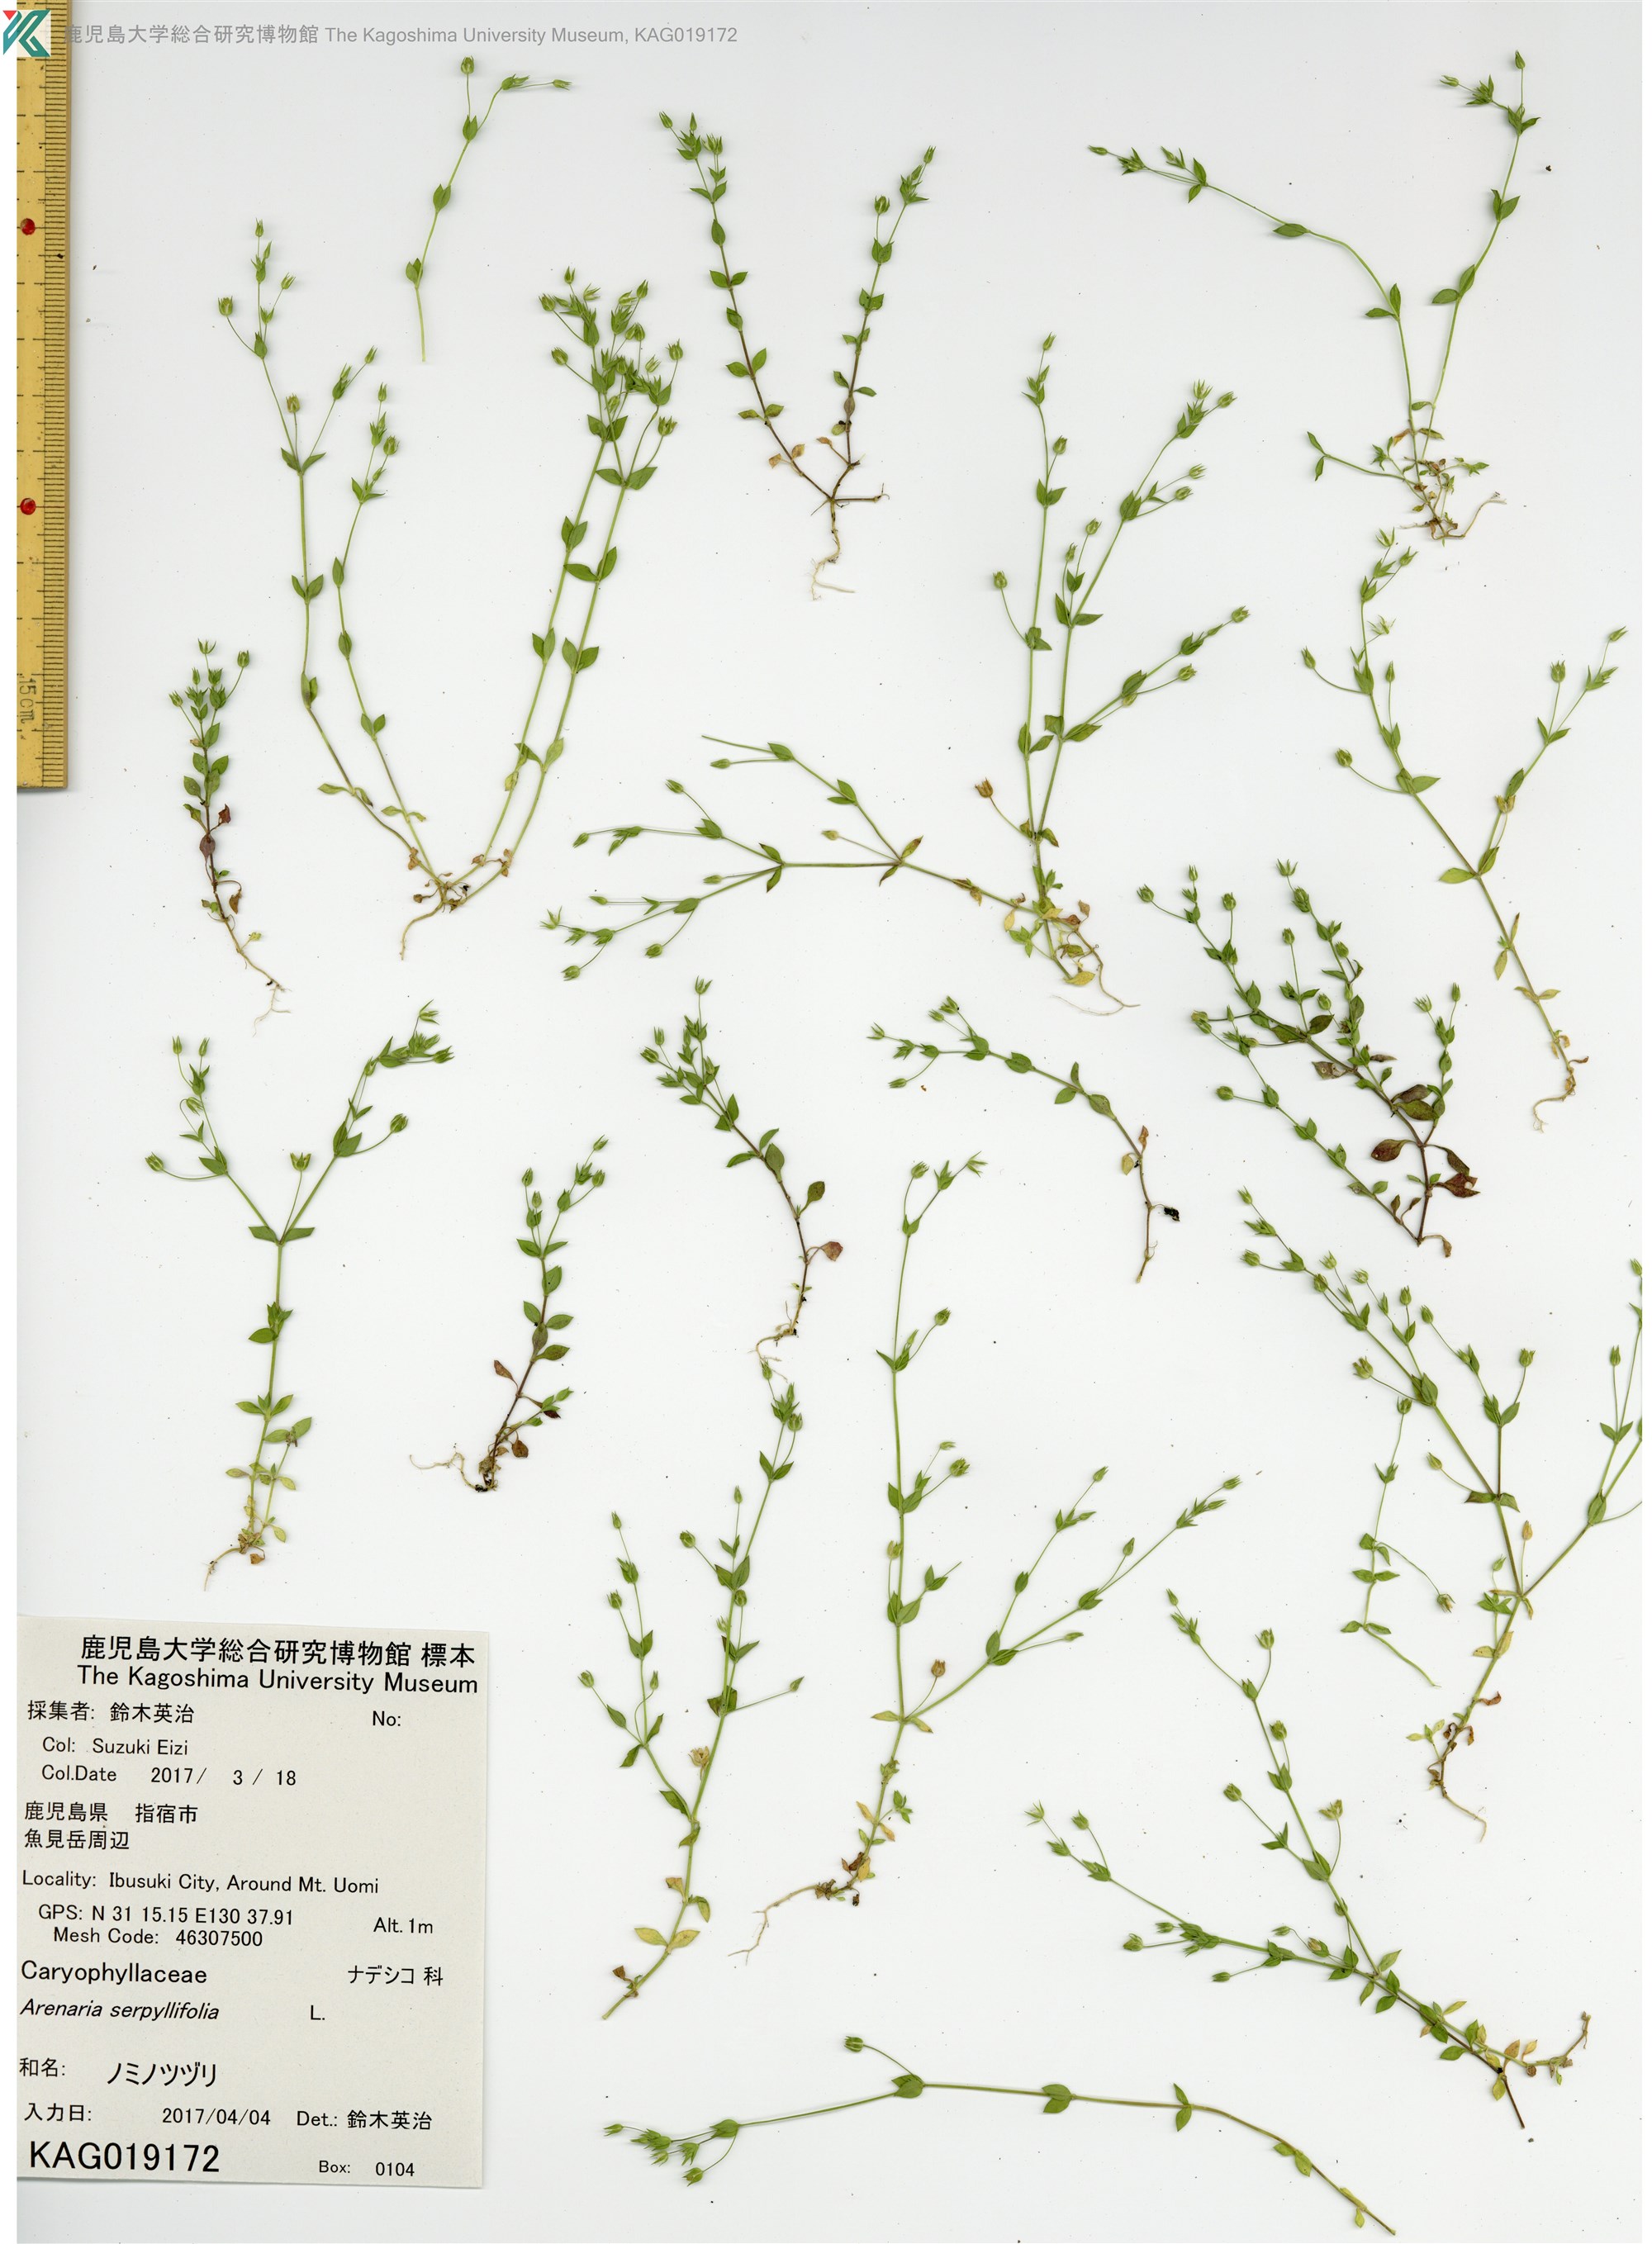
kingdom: Plantae
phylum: Tracheophyta
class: Magnoliopsida
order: Caryophyllales
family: Caryophyllaceae
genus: Arenaria
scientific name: Arenaria serpyllifolia
